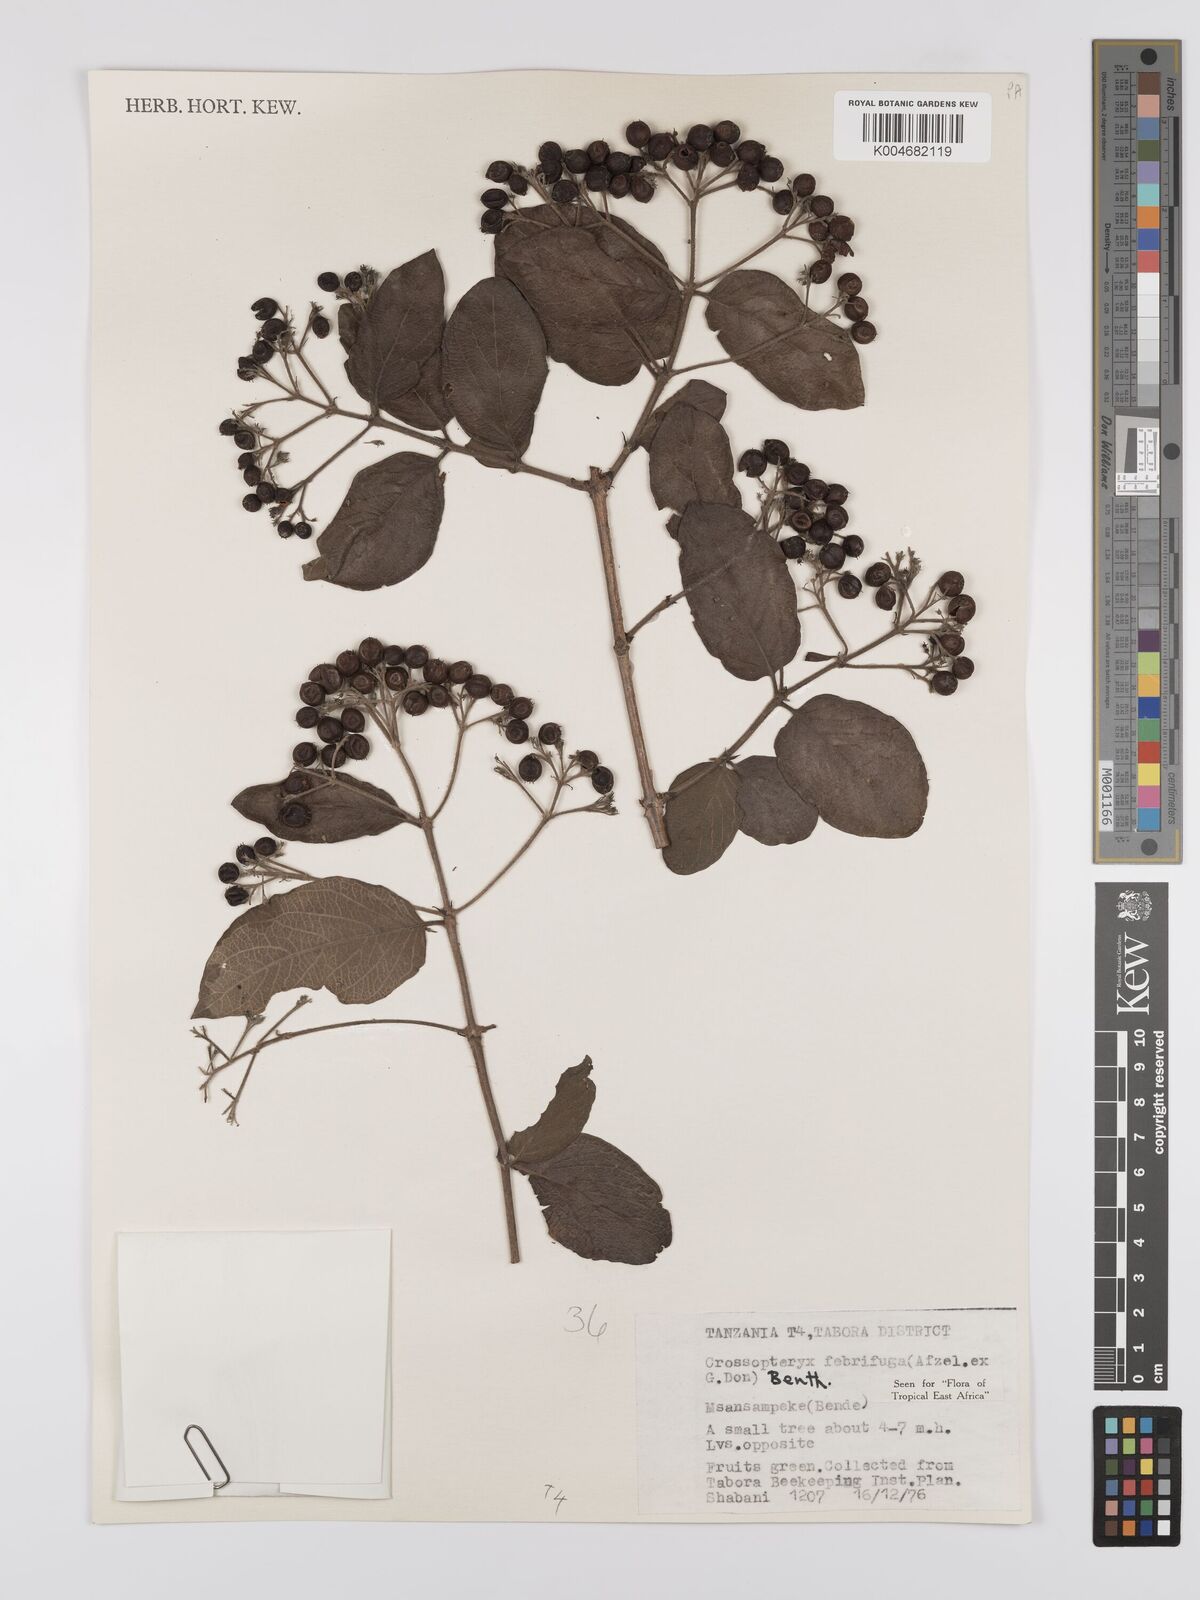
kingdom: Plantae
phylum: Tracheophyta
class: Magnoliopsida
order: Gentianales
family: Rubiaceae
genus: Crossopteryx
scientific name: Crossopteryx febrifuga
